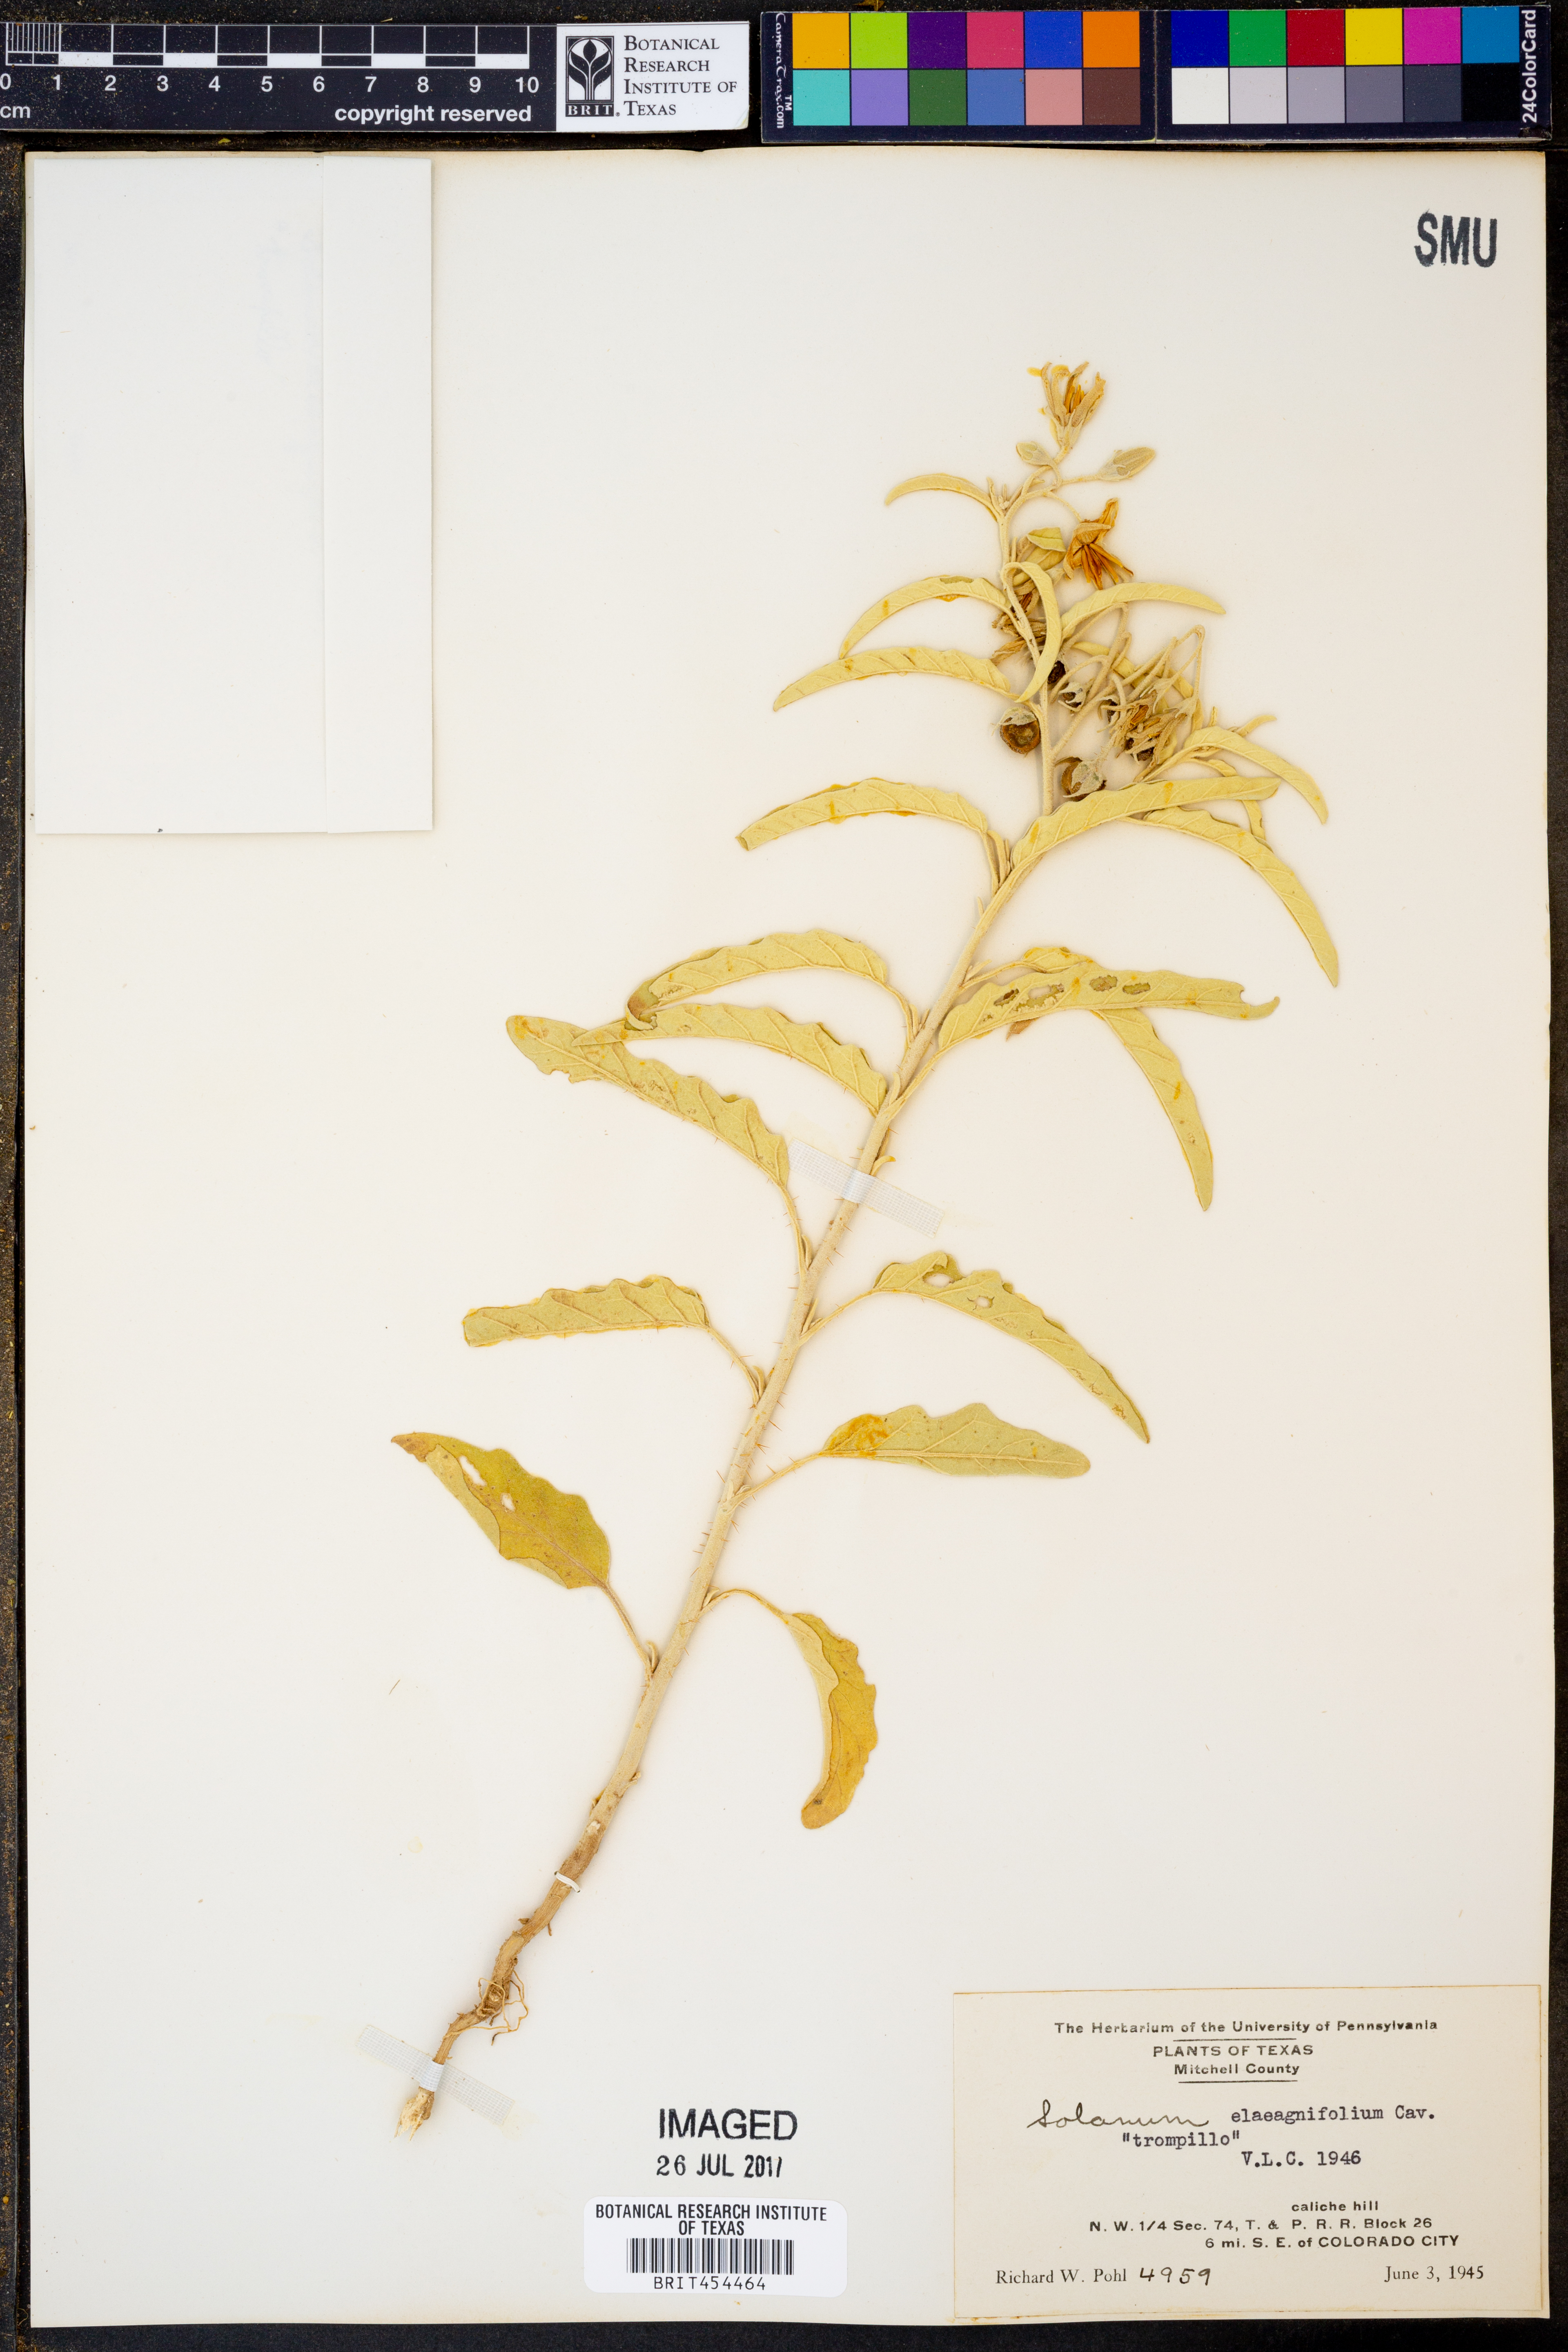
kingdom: Plantae
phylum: Tracheophyta
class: Magnoliopsida
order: Solanales
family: Solanaceae
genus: Solanum
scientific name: Solanum elaeagnifolium
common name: Silverleaf nightshade
